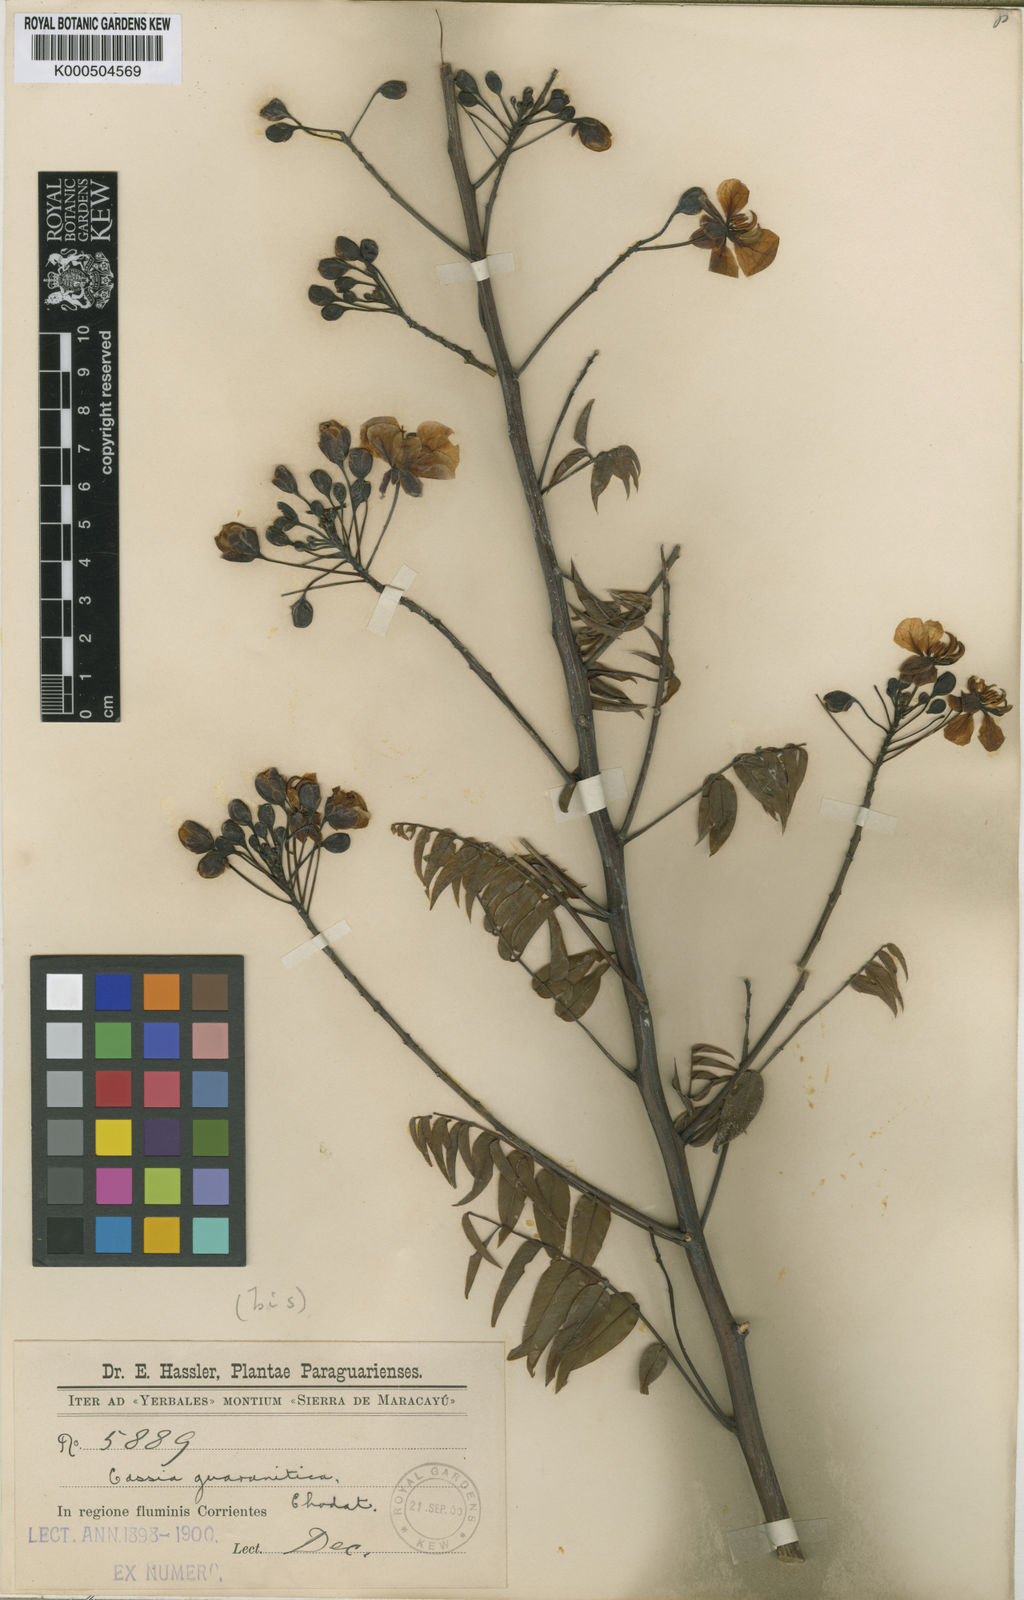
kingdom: Plantae
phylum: Tracheophyta
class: Magnoliopsida
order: Fabales
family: Fabaceae
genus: Senna
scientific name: Senna silvestris
